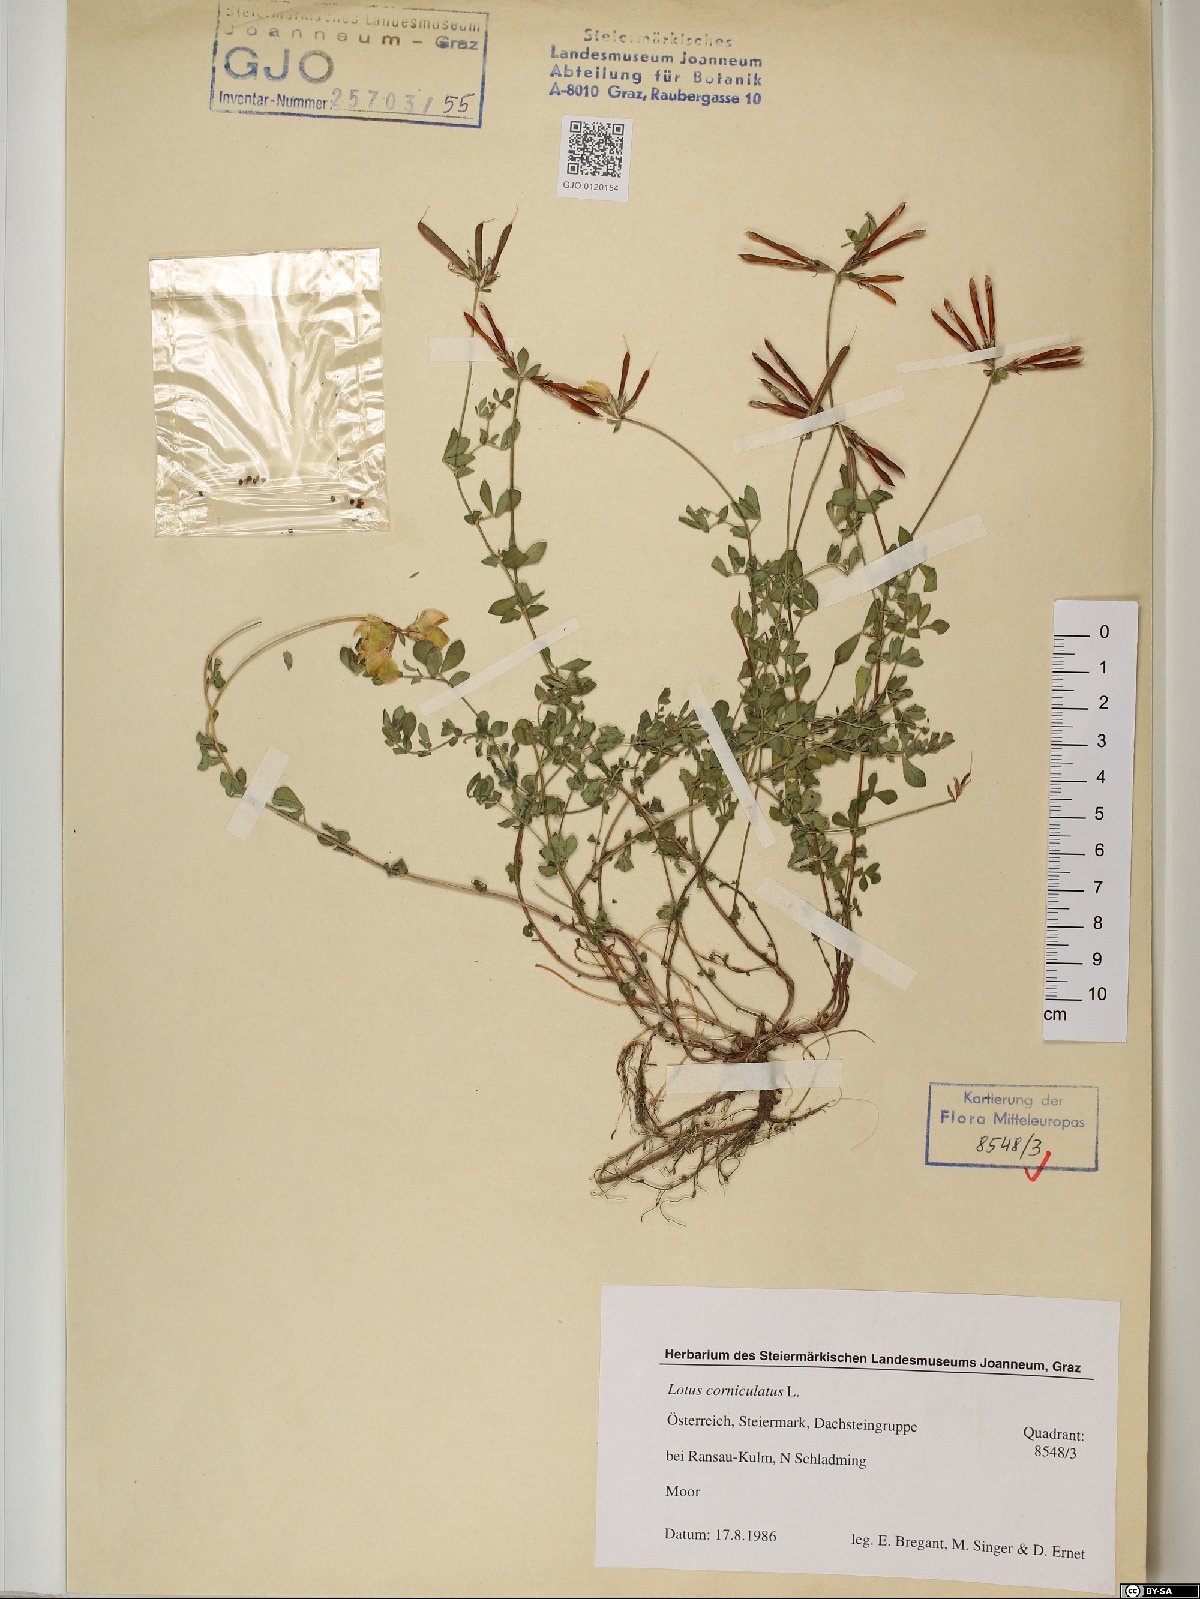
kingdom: Plantae
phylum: Tracheophyta
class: Magnoliopsida
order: Fabales
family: Fabaceae
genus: Lotus
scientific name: Lotus corniculatus
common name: Common bird's-foot-trefoil
